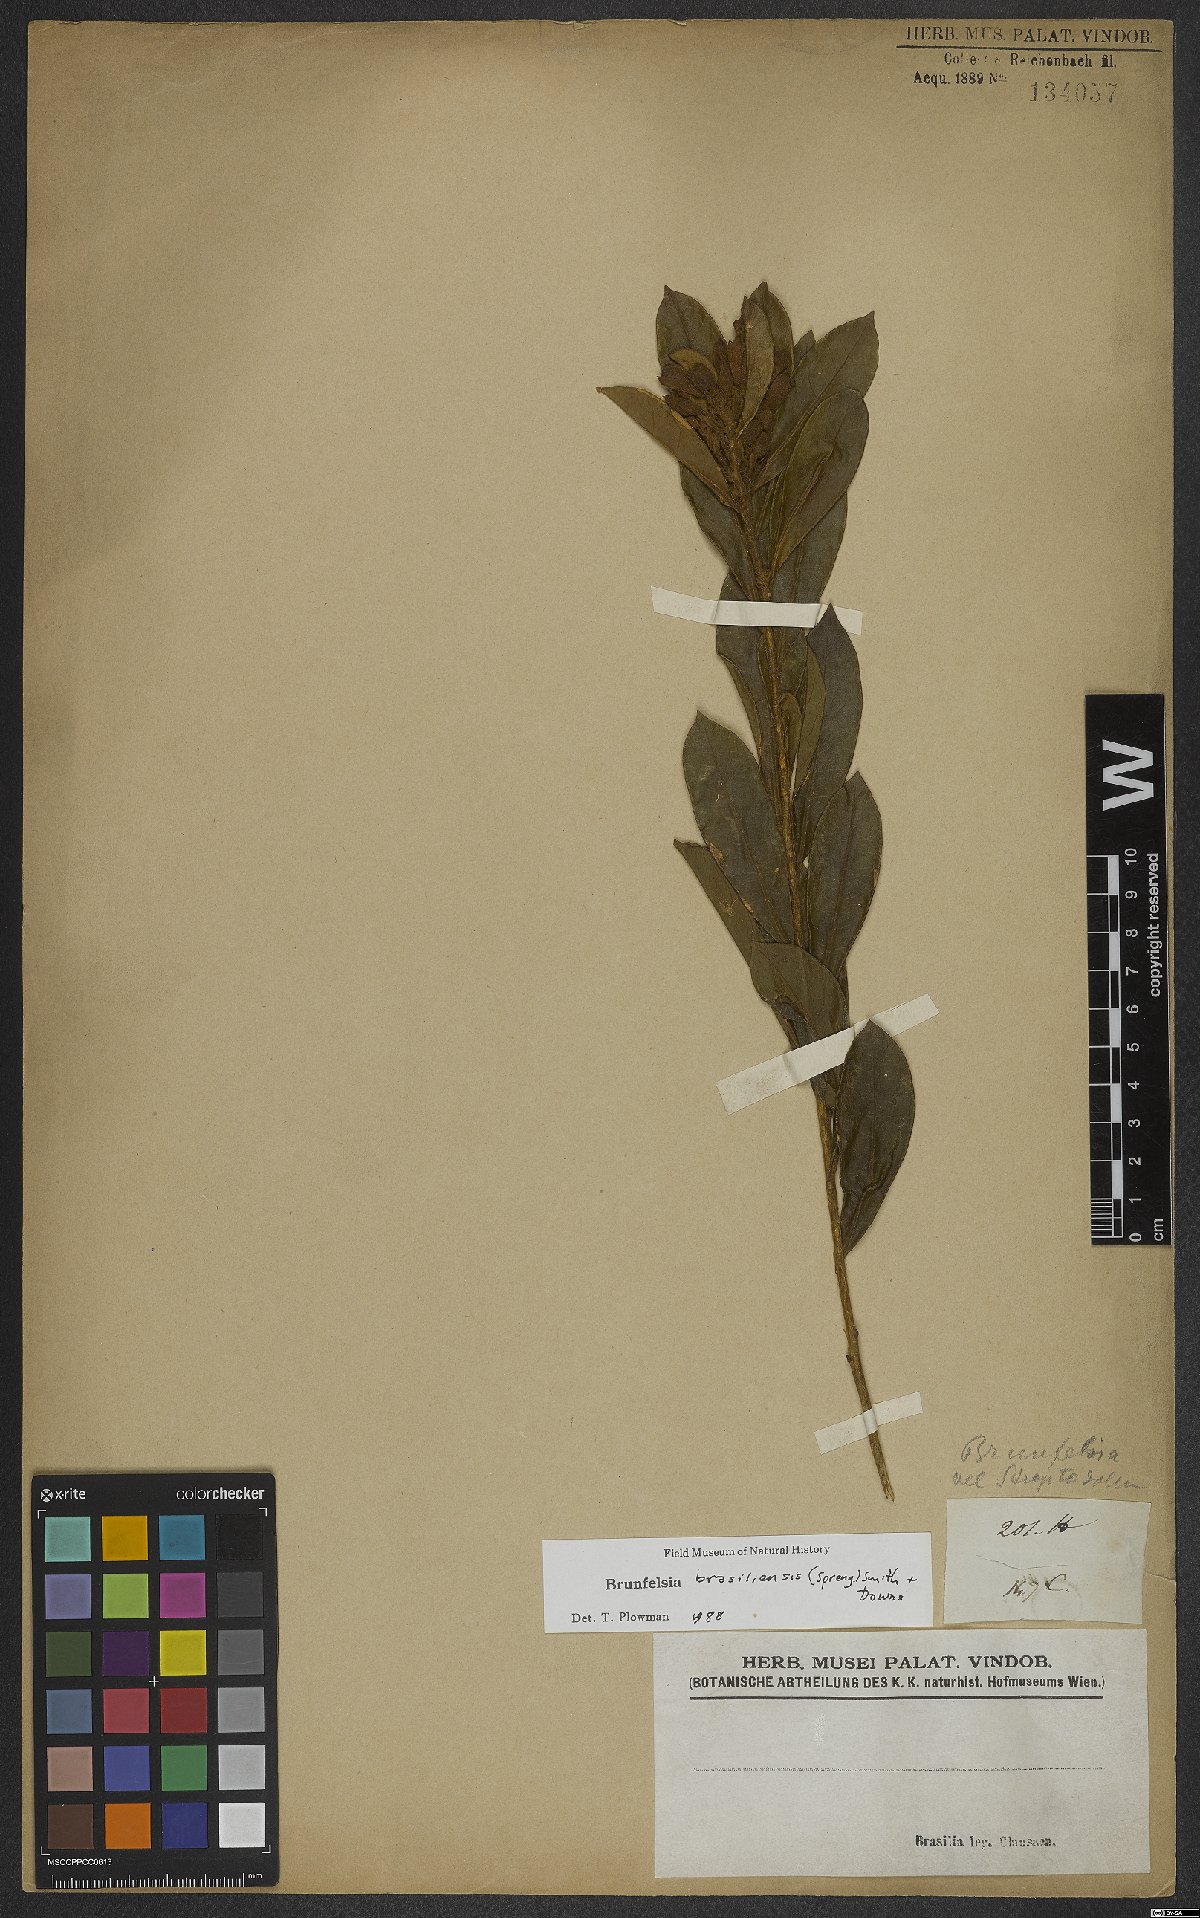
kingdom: Plantae
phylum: Tracheophyta
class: Magnoliopsida
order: Solanales
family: Solanaceae
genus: Brunfelsia
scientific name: Brunfelsia brasiliensis
